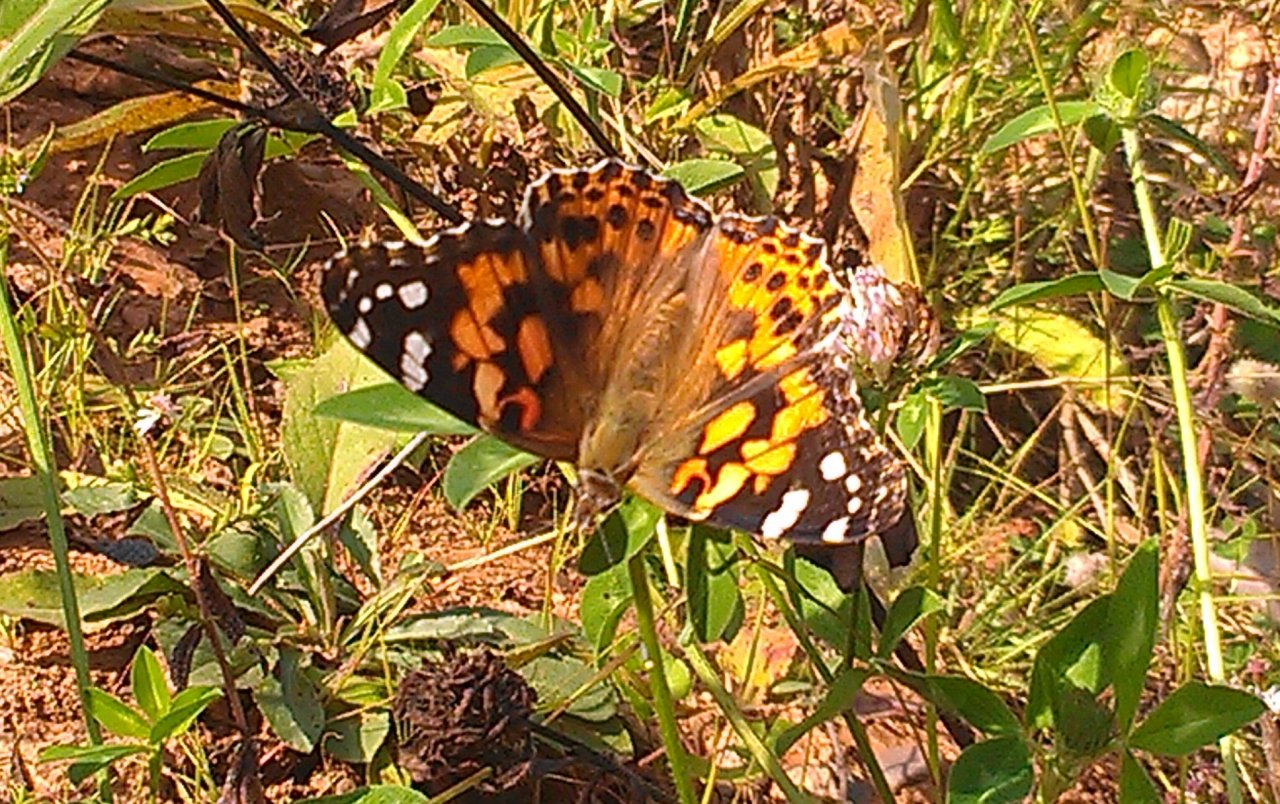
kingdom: Animalia
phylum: Arthropoda
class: Insecta
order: Lepidoptera
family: Nymphalidae
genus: Vanessa
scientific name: Vanessa cardui
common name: Painted Lady
